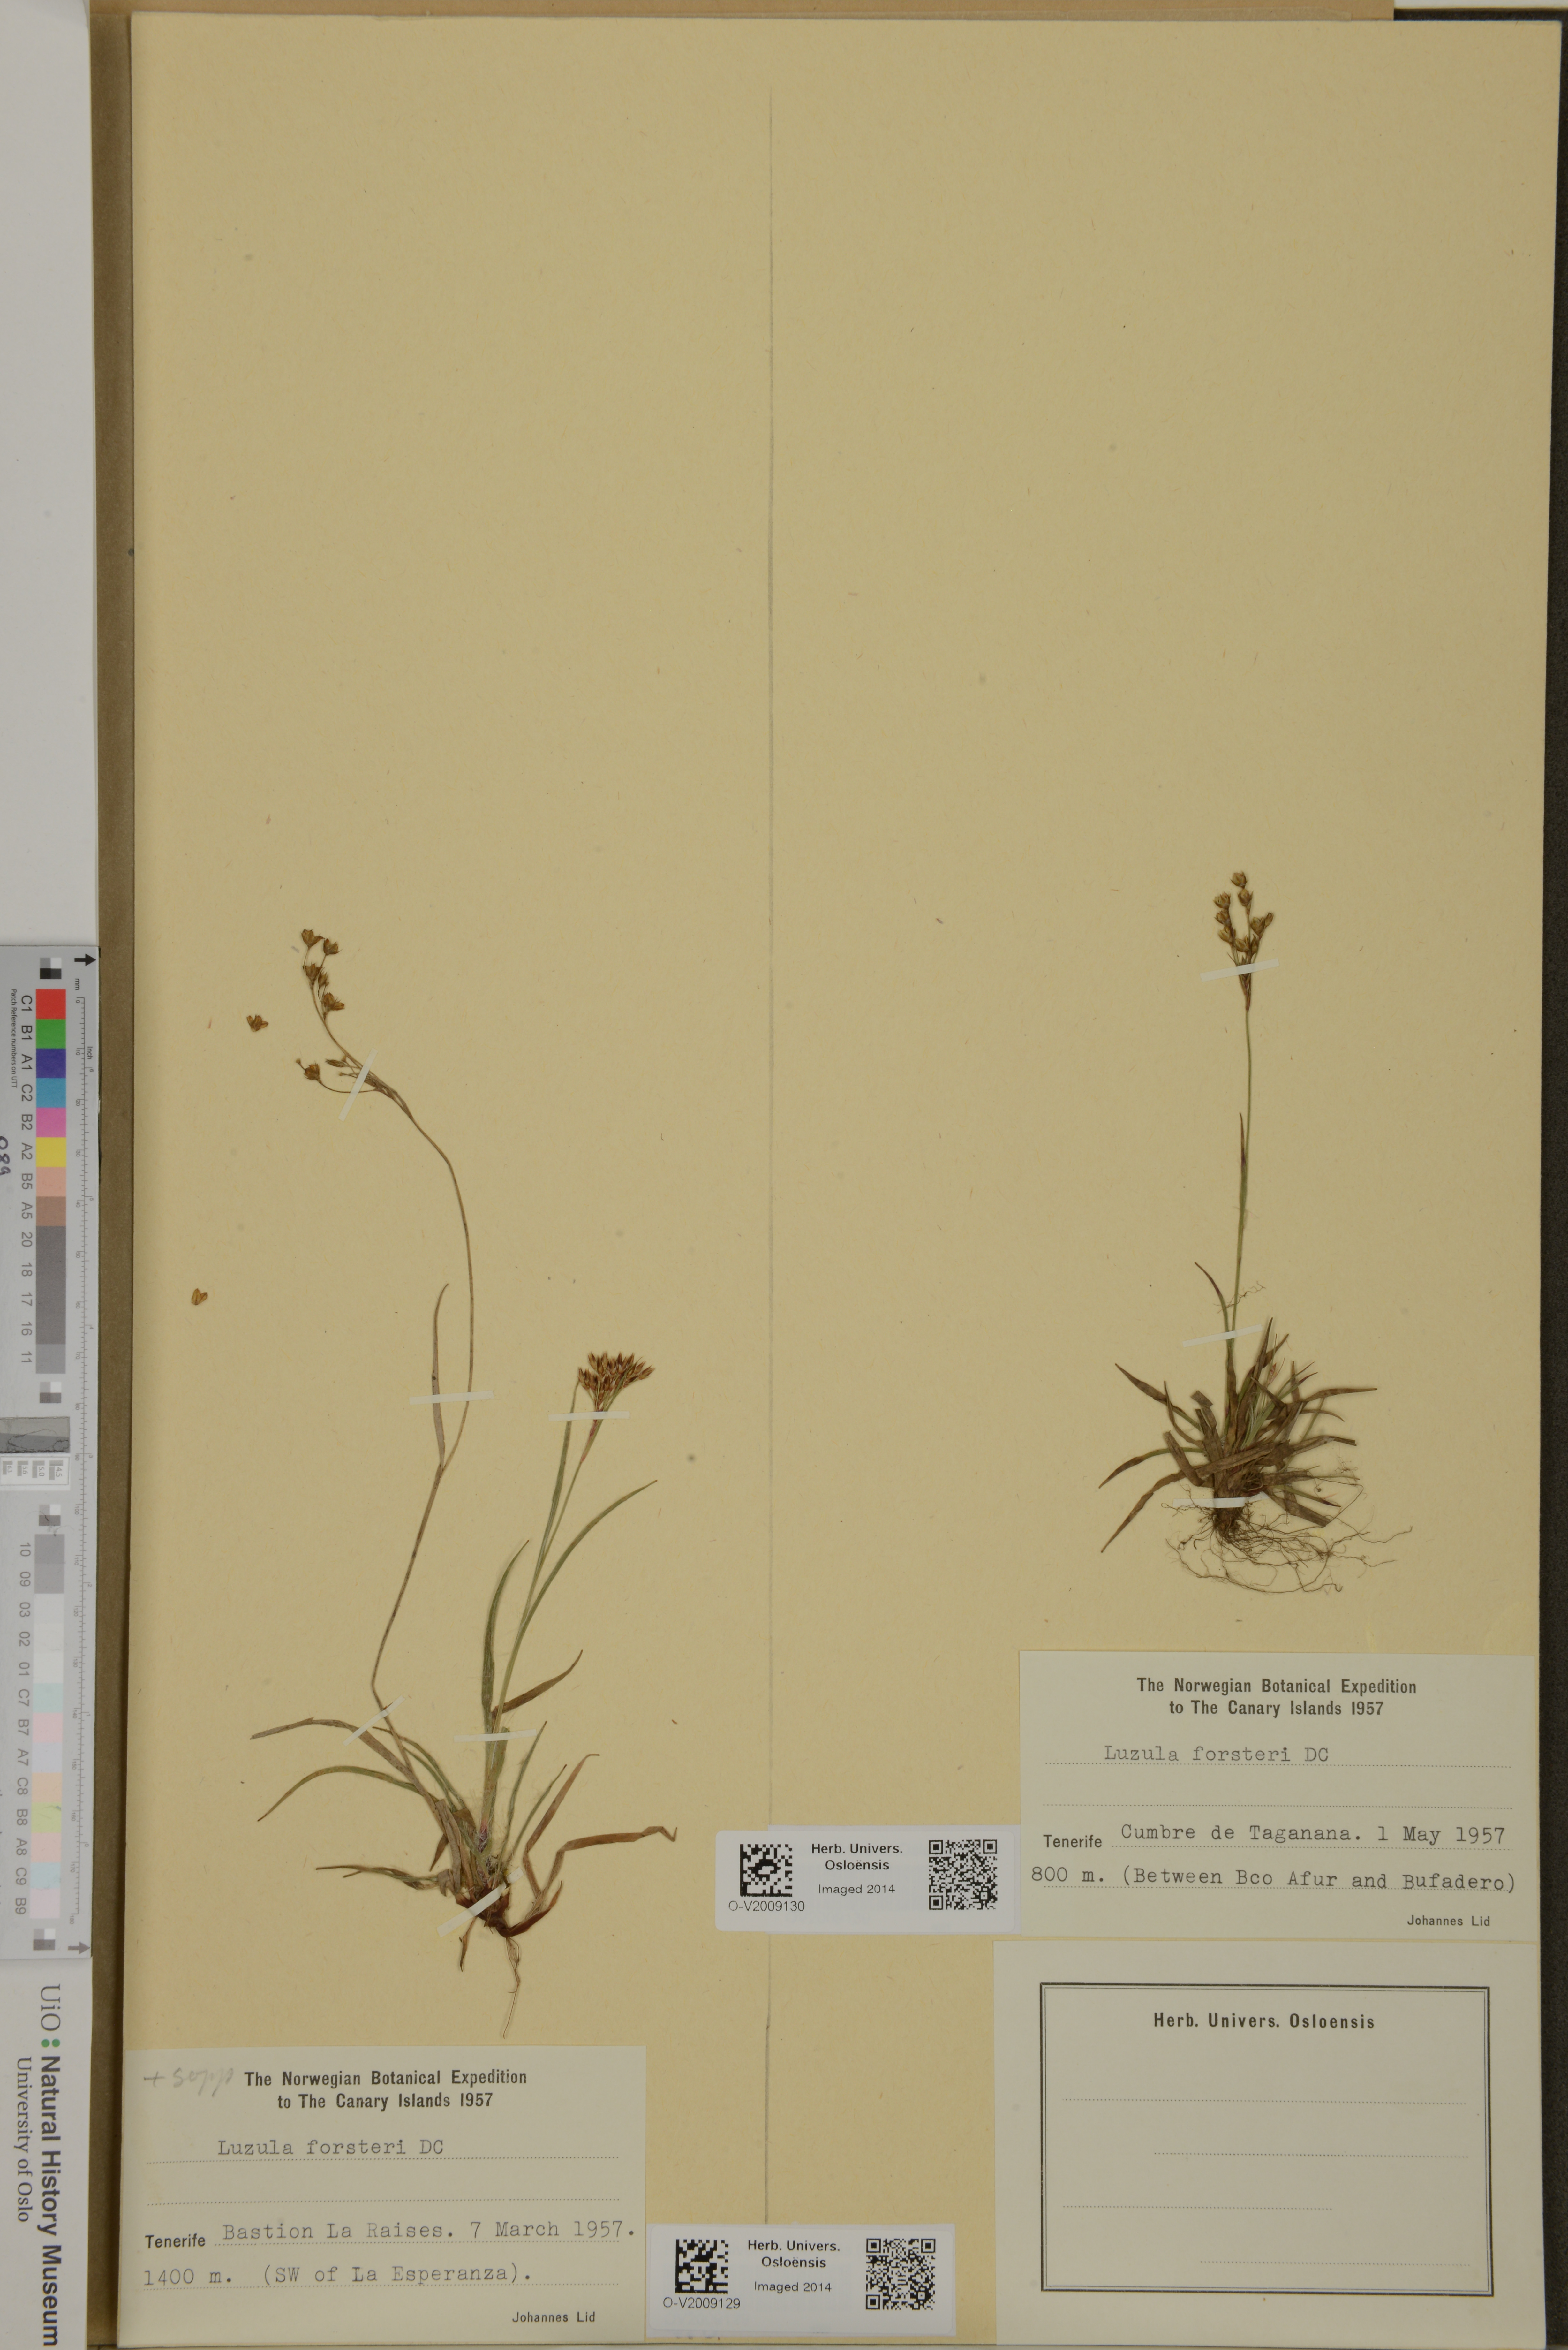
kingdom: Plantae
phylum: Tracheophyta
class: Liliopsida
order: Poales
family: Juncaceae
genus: Luzula
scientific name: Luzula forsteri
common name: Southern wood-rush
